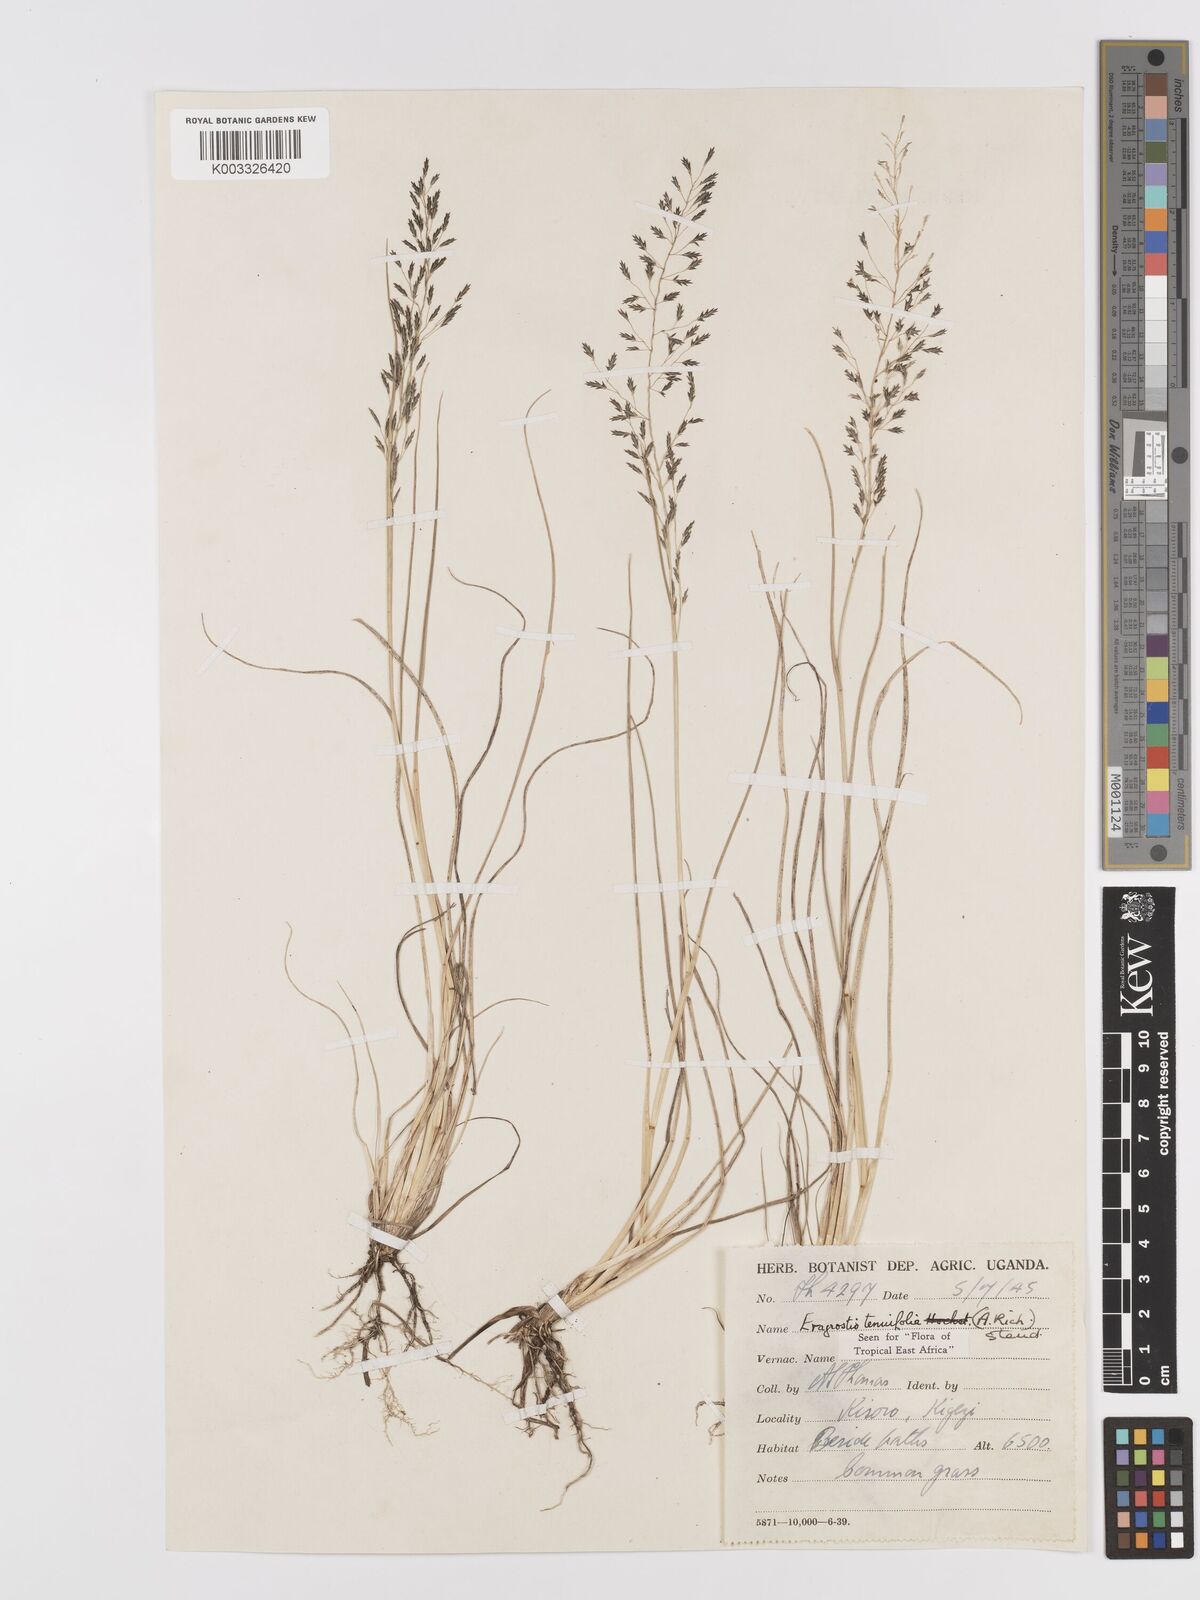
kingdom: Plantae
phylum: Tracheophyta
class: Liliopsida
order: Poales
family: Poaceae
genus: Eragrostis
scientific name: Eragrostis tenuifolia
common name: Elastic grass
